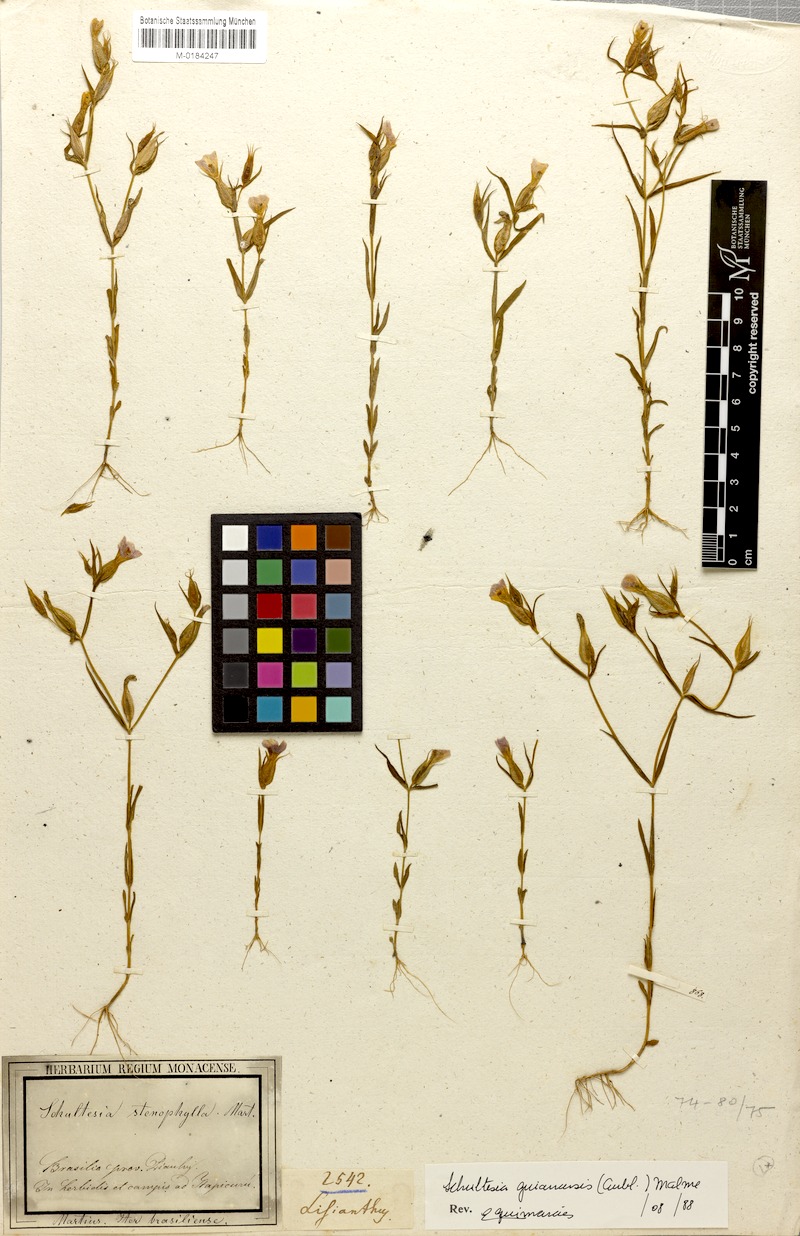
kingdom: Plantae
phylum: Tracheophyta
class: Magnoliopsida
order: Gentianales
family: Gentianaceae
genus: Schultesia
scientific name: Schultesia brachyptera
